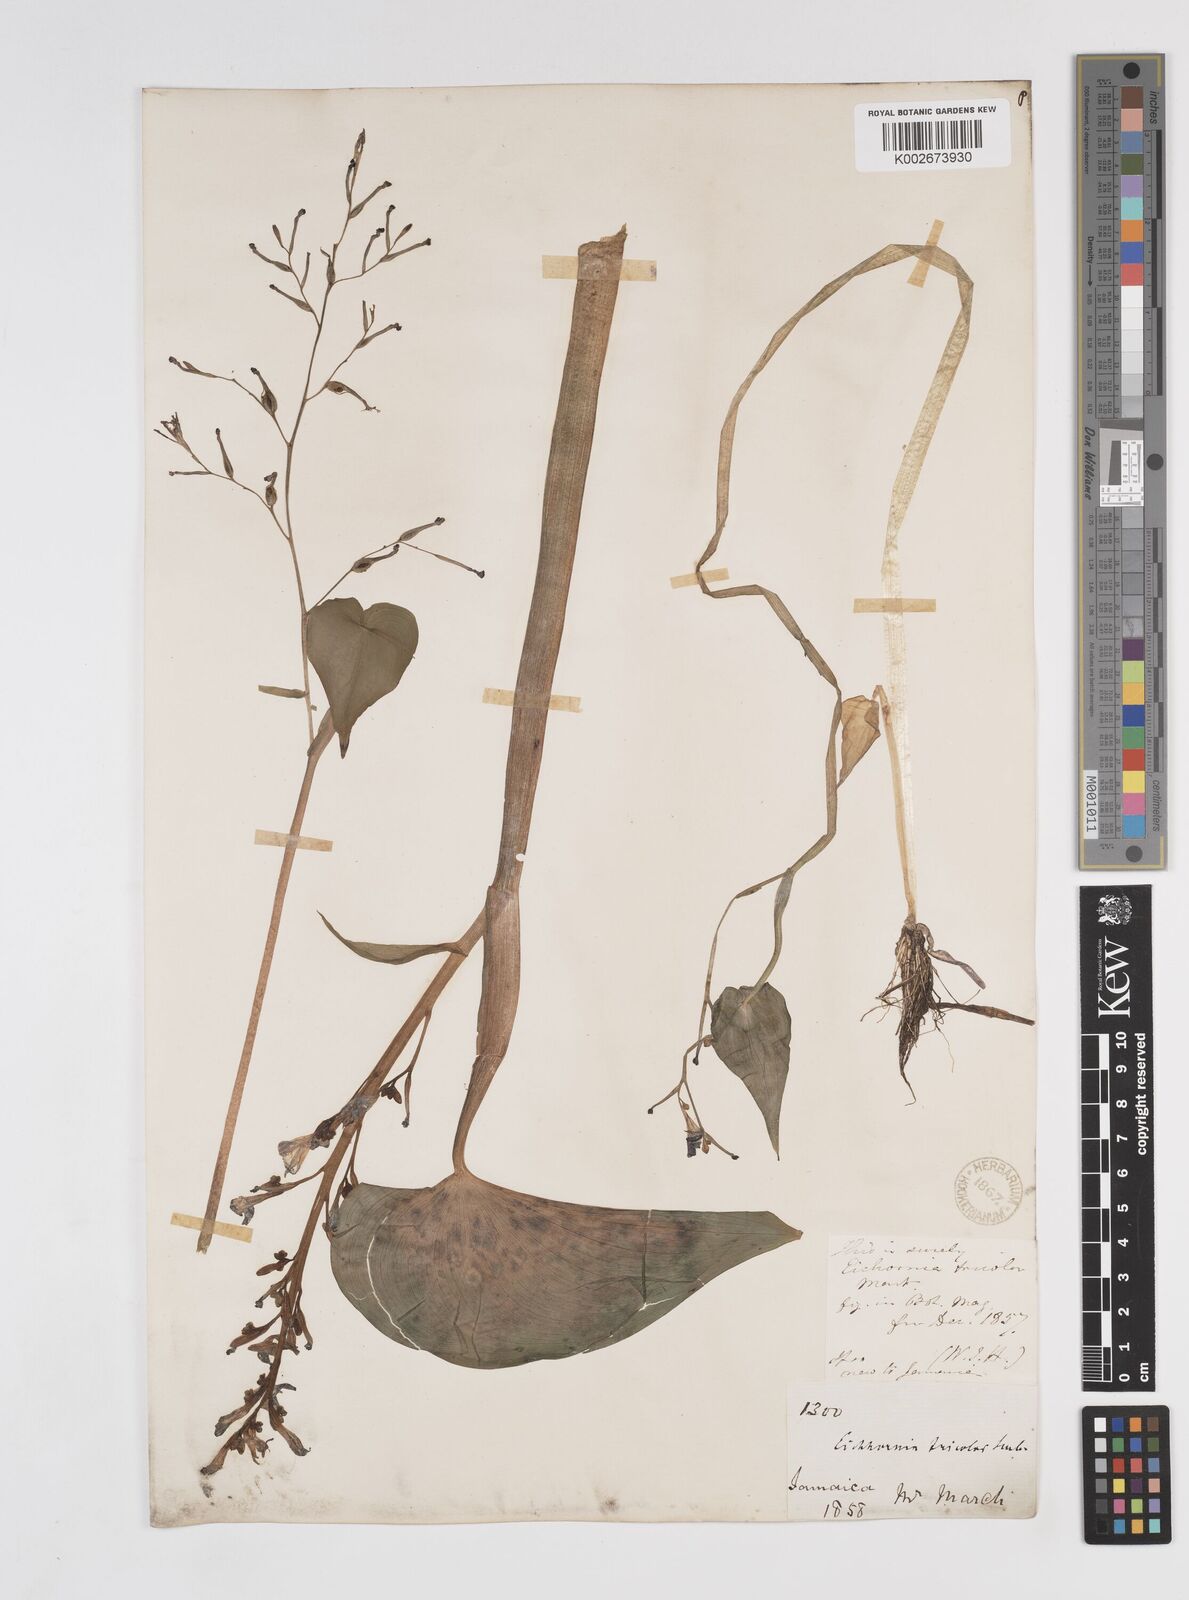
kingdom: Plantae
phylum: Tracheophyta
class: Liliopsida
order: Commelinales
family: Pontederiaceae
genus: Pontederia
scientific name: Pontederia paniculata
